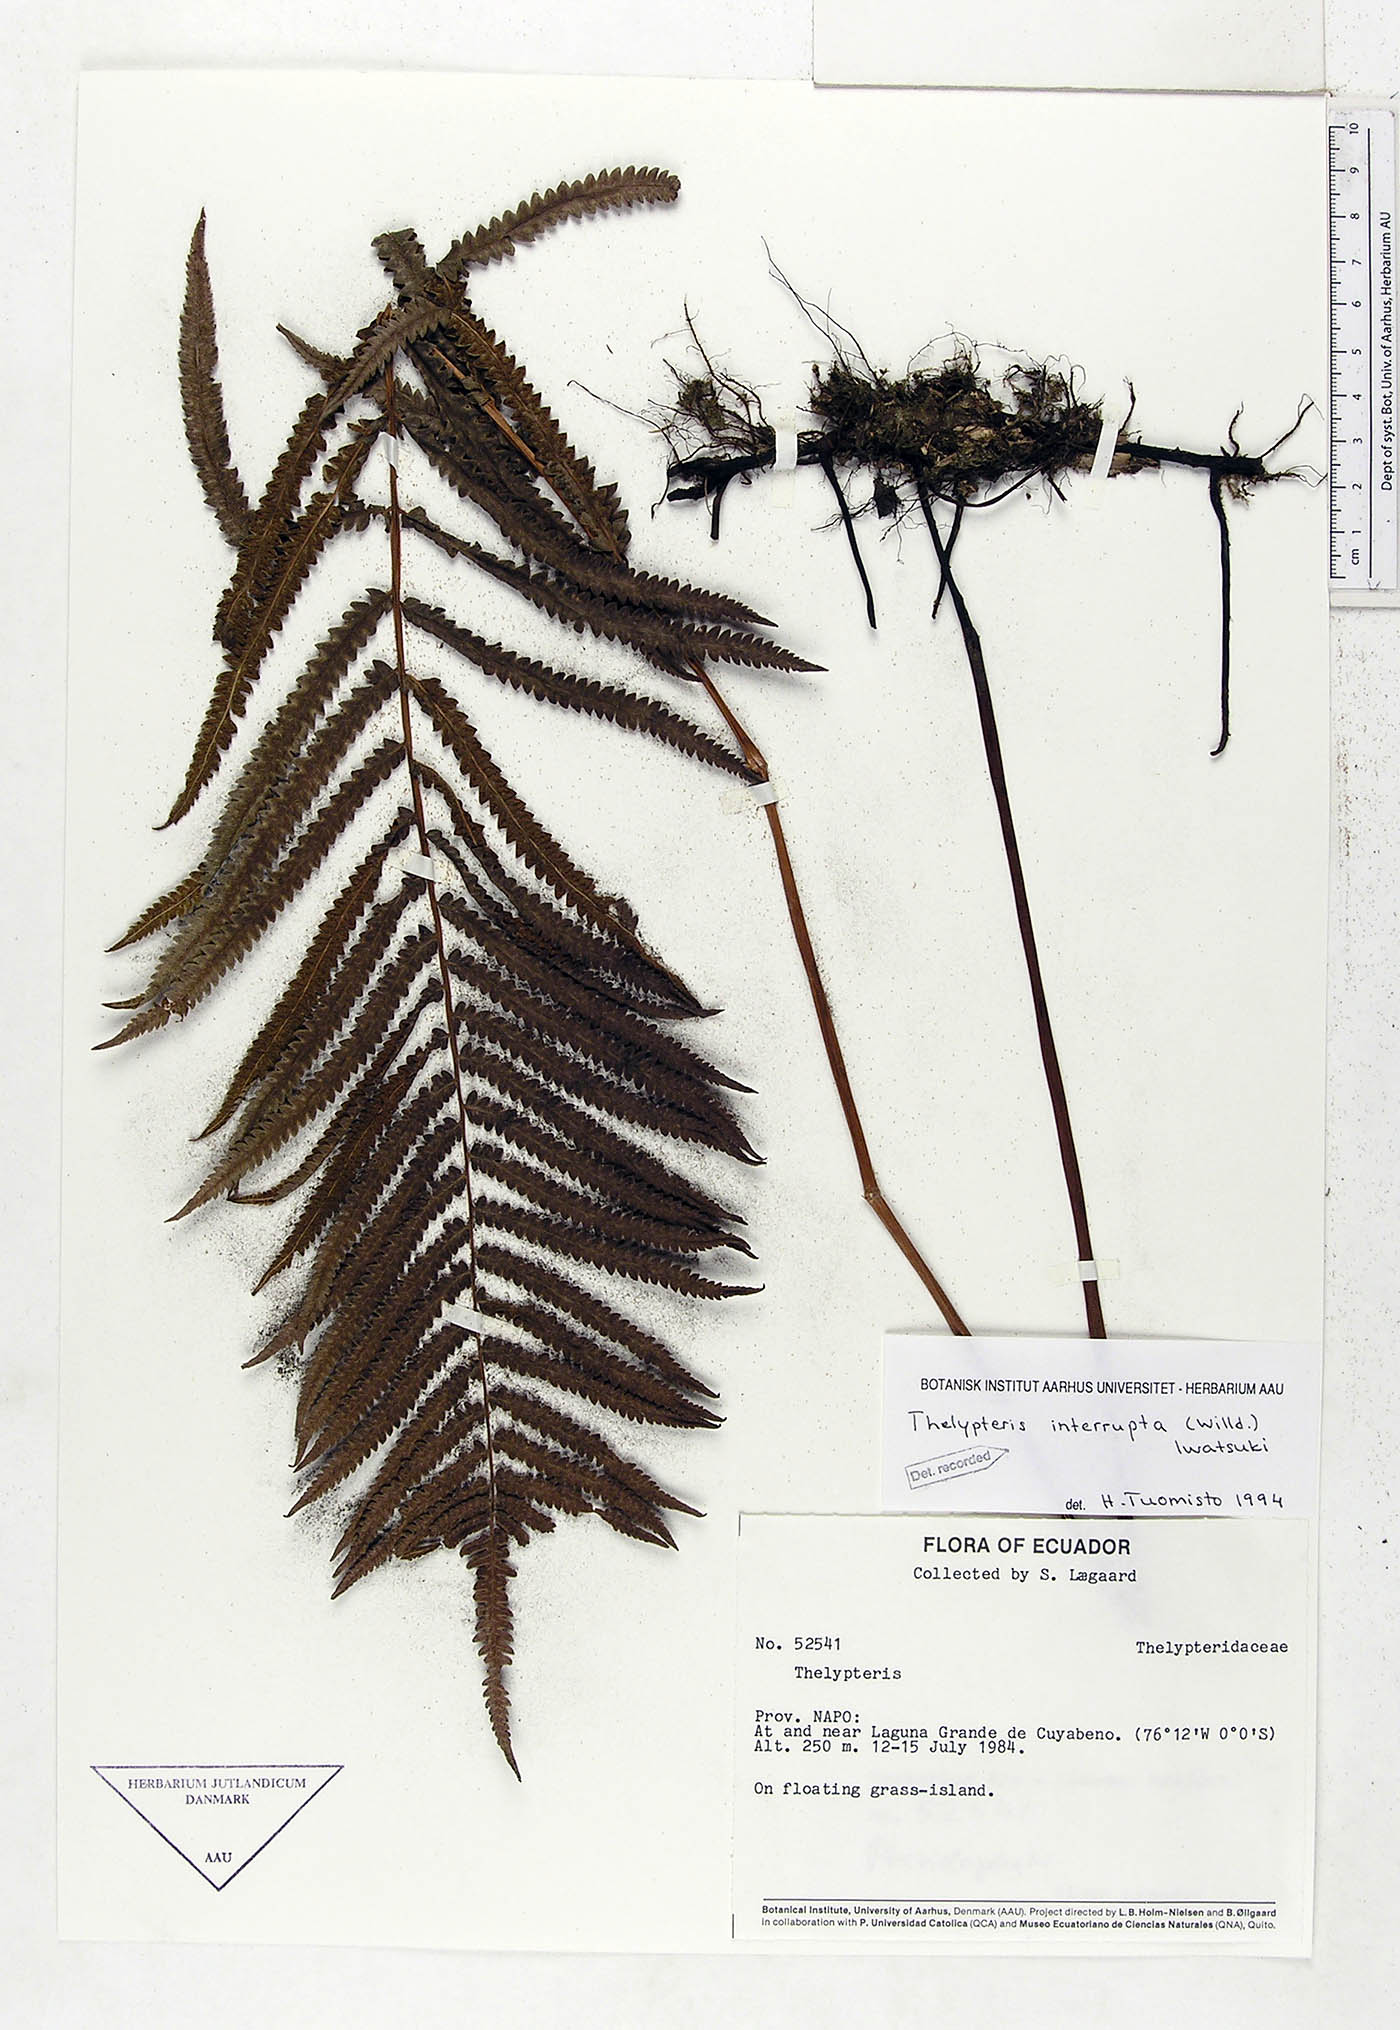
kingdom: Plantae
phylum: Tracheophyta
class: Polypodiopsida
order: Polypodiales
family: Thelypteridaceae
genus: Cyclosorus
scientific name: Cyclosorus interruptus
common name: Neke fern
